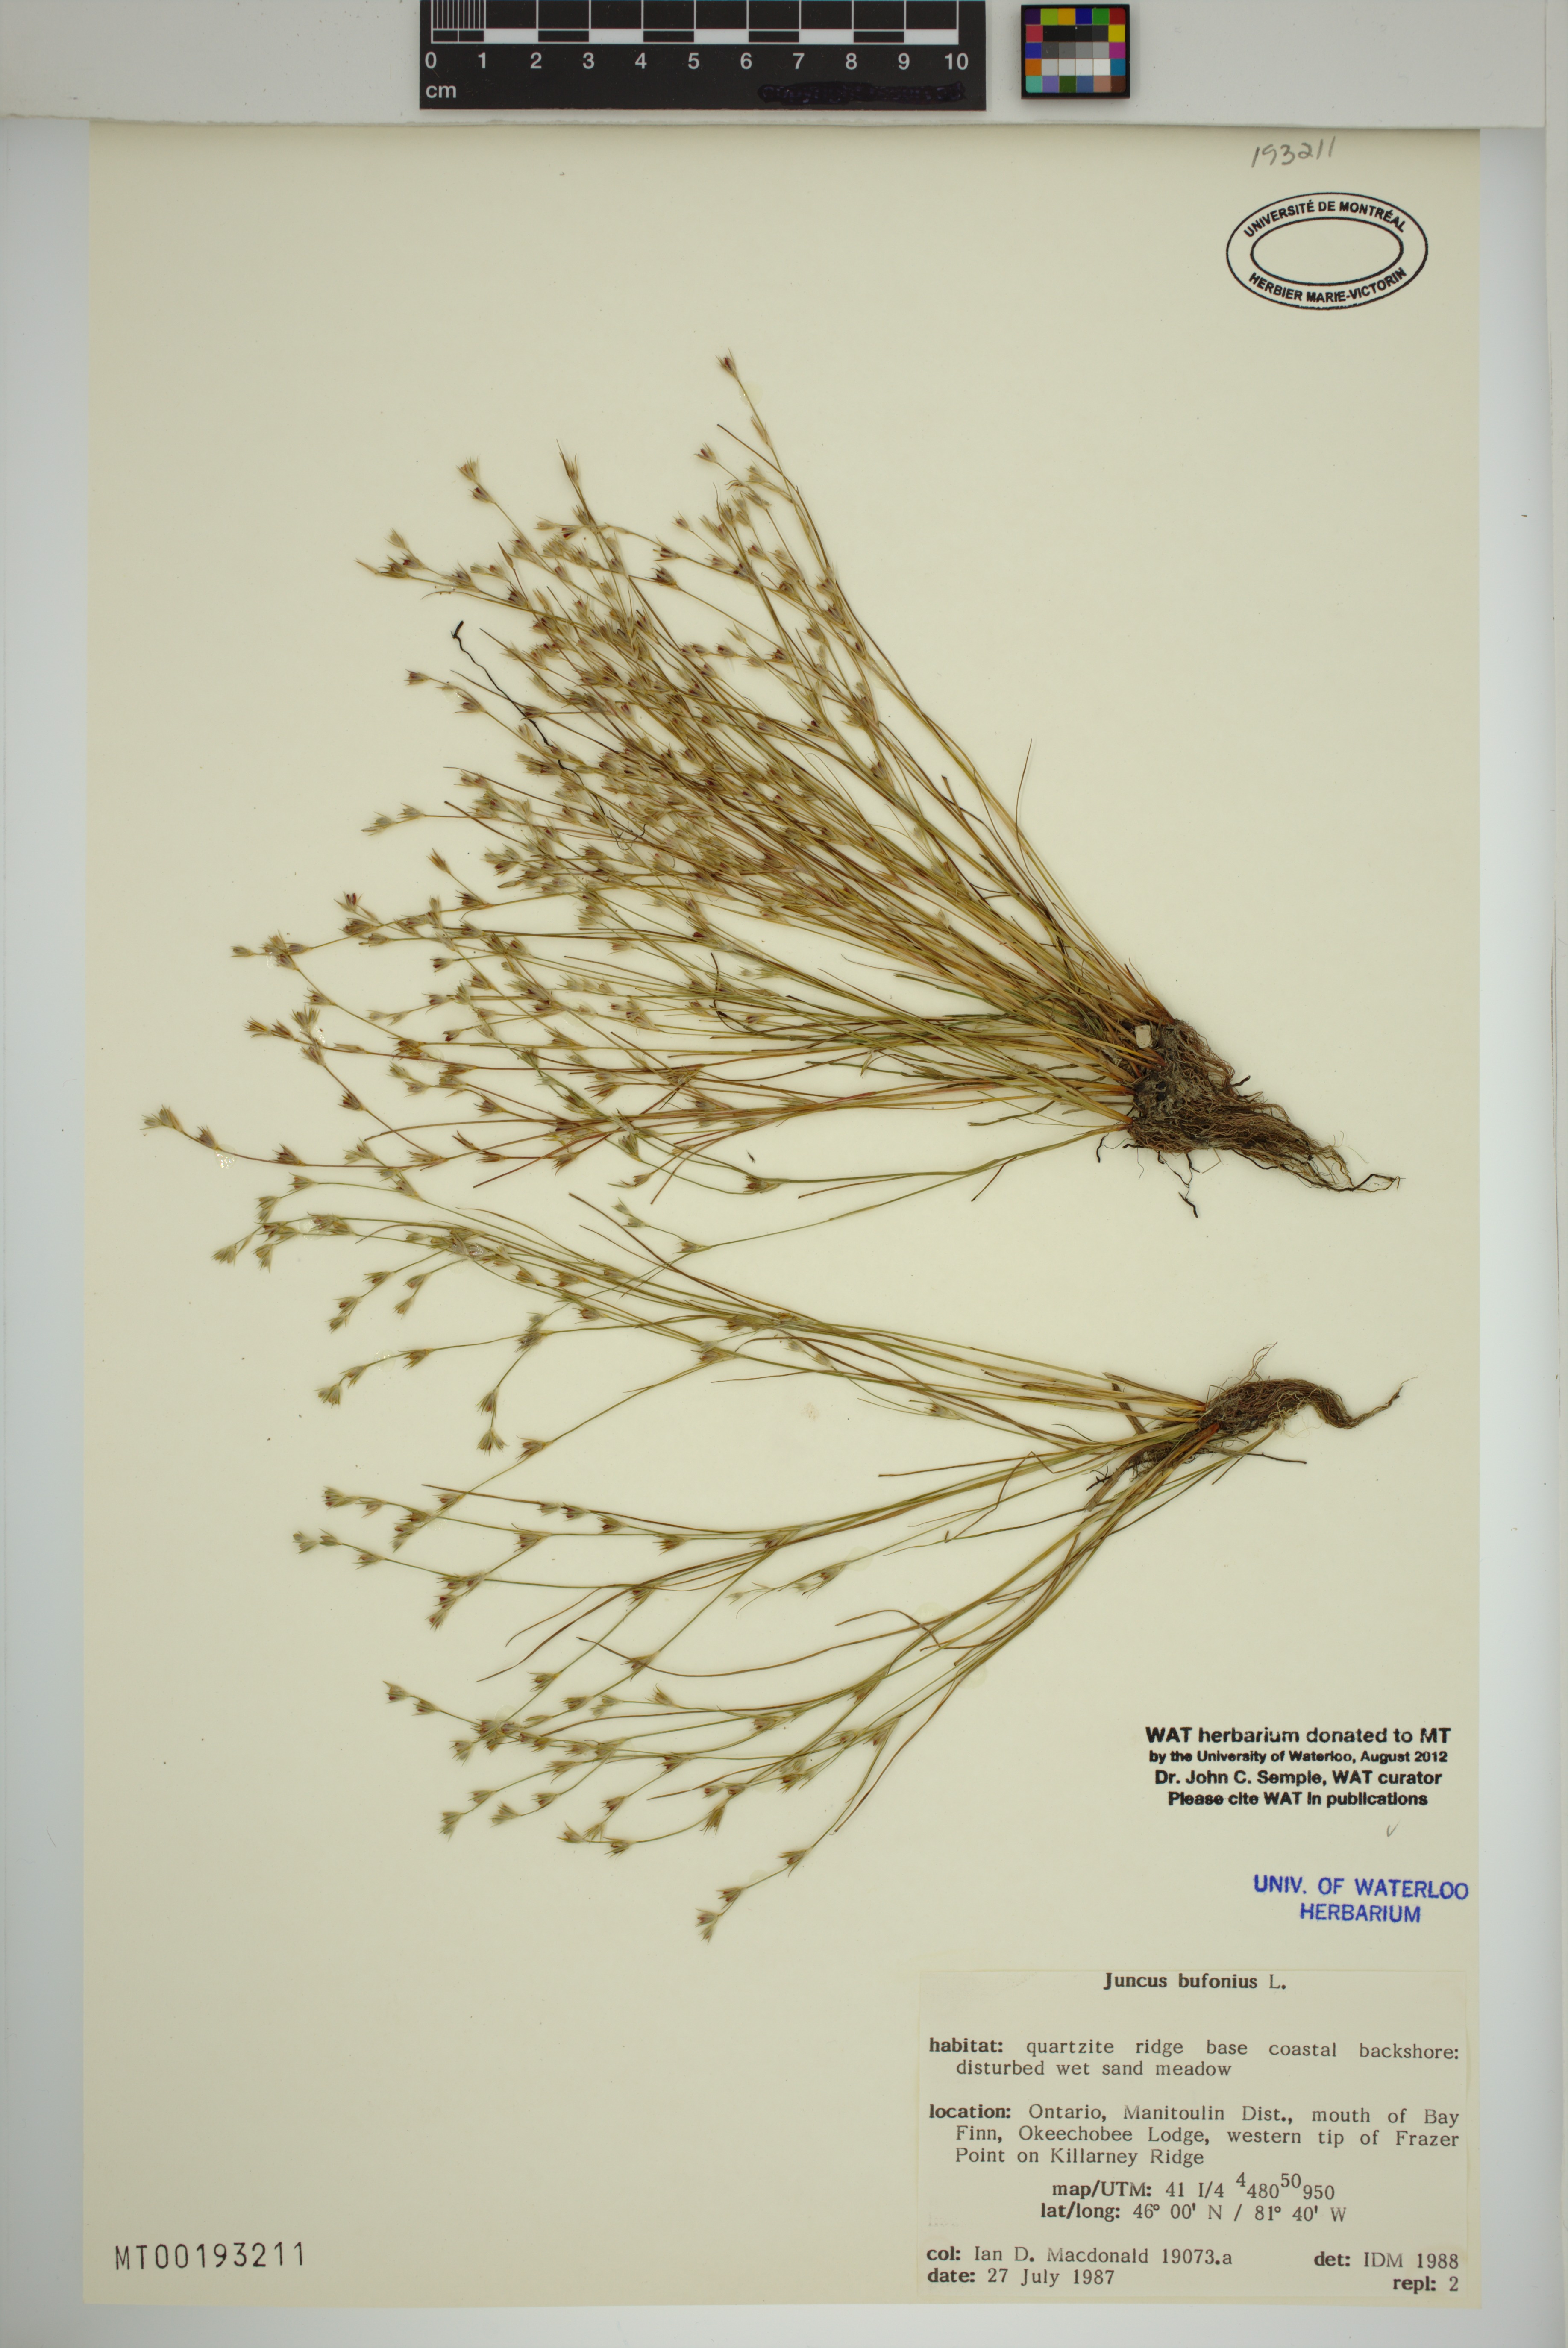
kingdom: Plantae
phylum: Tracheophyta
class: Liliopsida
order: Poales
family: Juncaceae
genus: Juncus
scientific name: Juncus bufonius
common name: Toad rush
